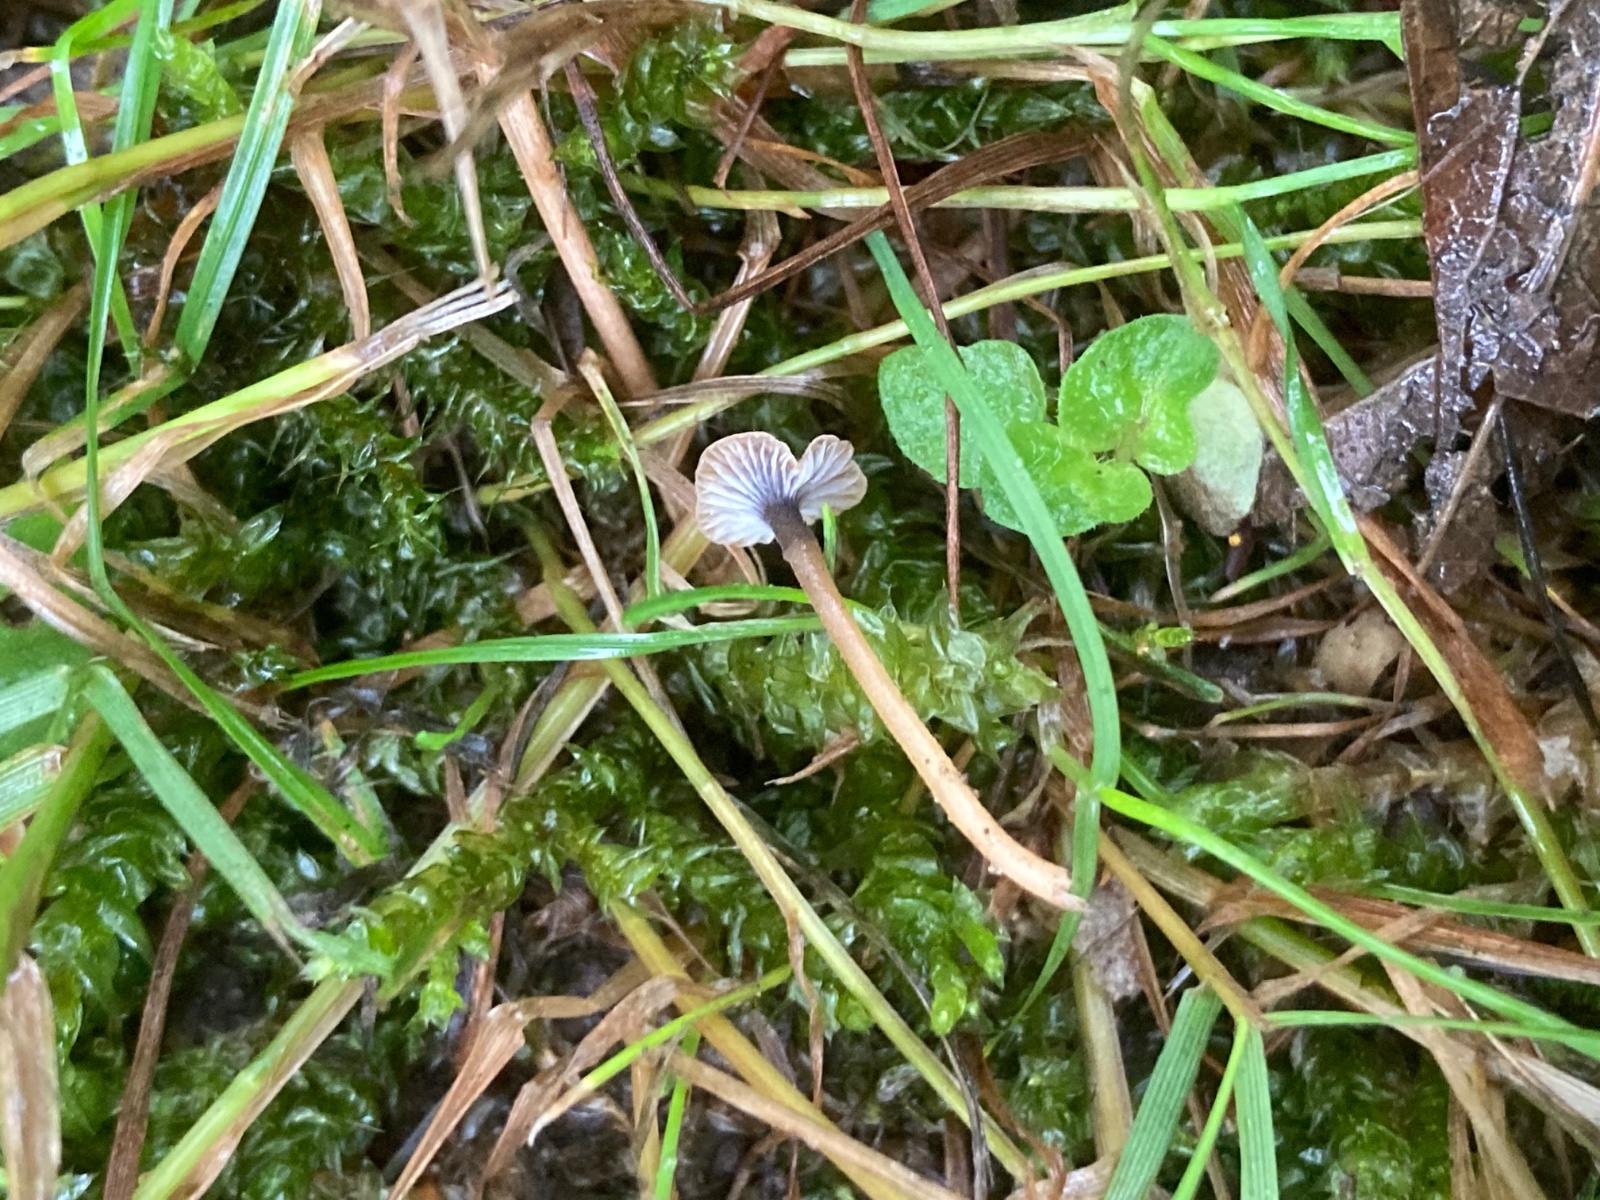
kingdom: Fungi
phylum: Basidiomycota
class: Agaricomycetes
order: Hymenochaetales
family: Rickenellaceae
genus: Rickenella
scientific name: Rickenella swartzii
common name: finstokket mosnavlehat
